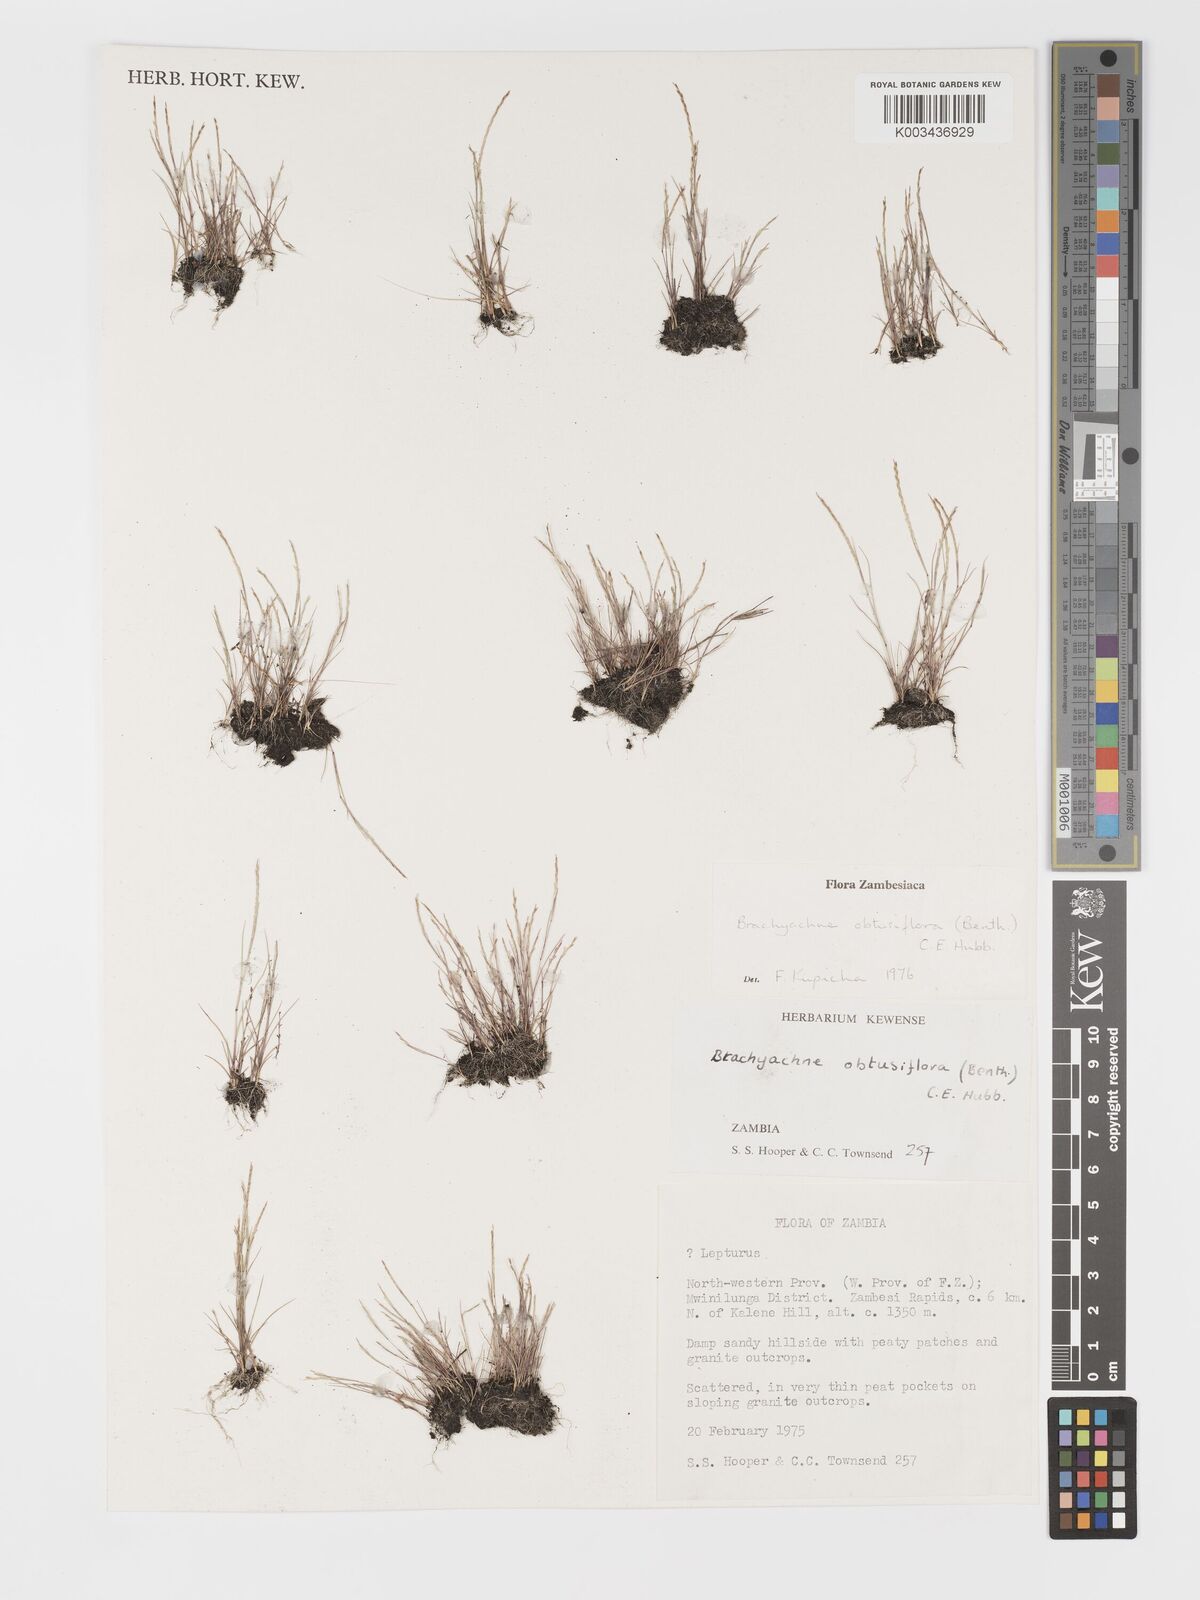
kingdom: Plantae
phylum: Tracheophyta
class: Liliopsida
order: Poales
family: Poaceae
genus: Micrachne
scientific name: Micrachne obtusiflora
